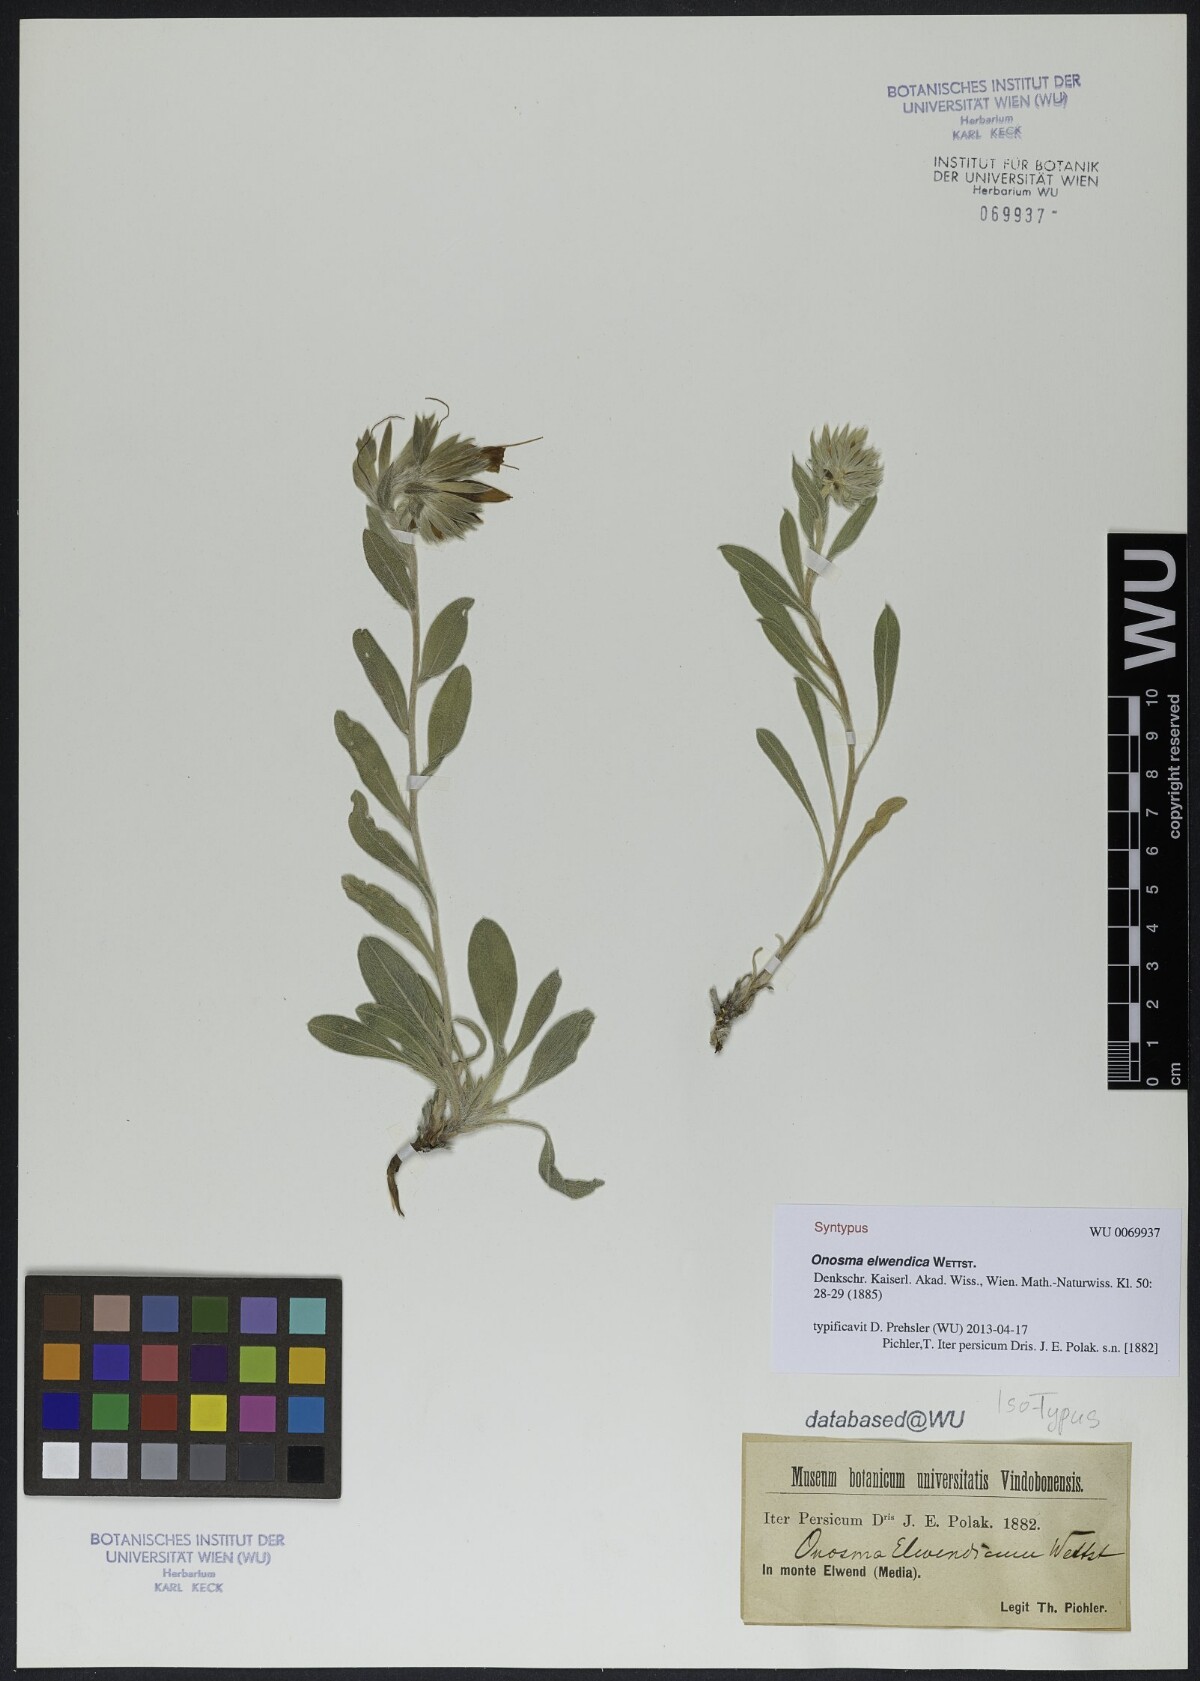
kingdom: Plantae
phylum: Tracheophyta
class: Magnoliopsida
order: Boraginales
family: Boraginaceae
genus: Onosma
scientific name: Onosma elwendica
